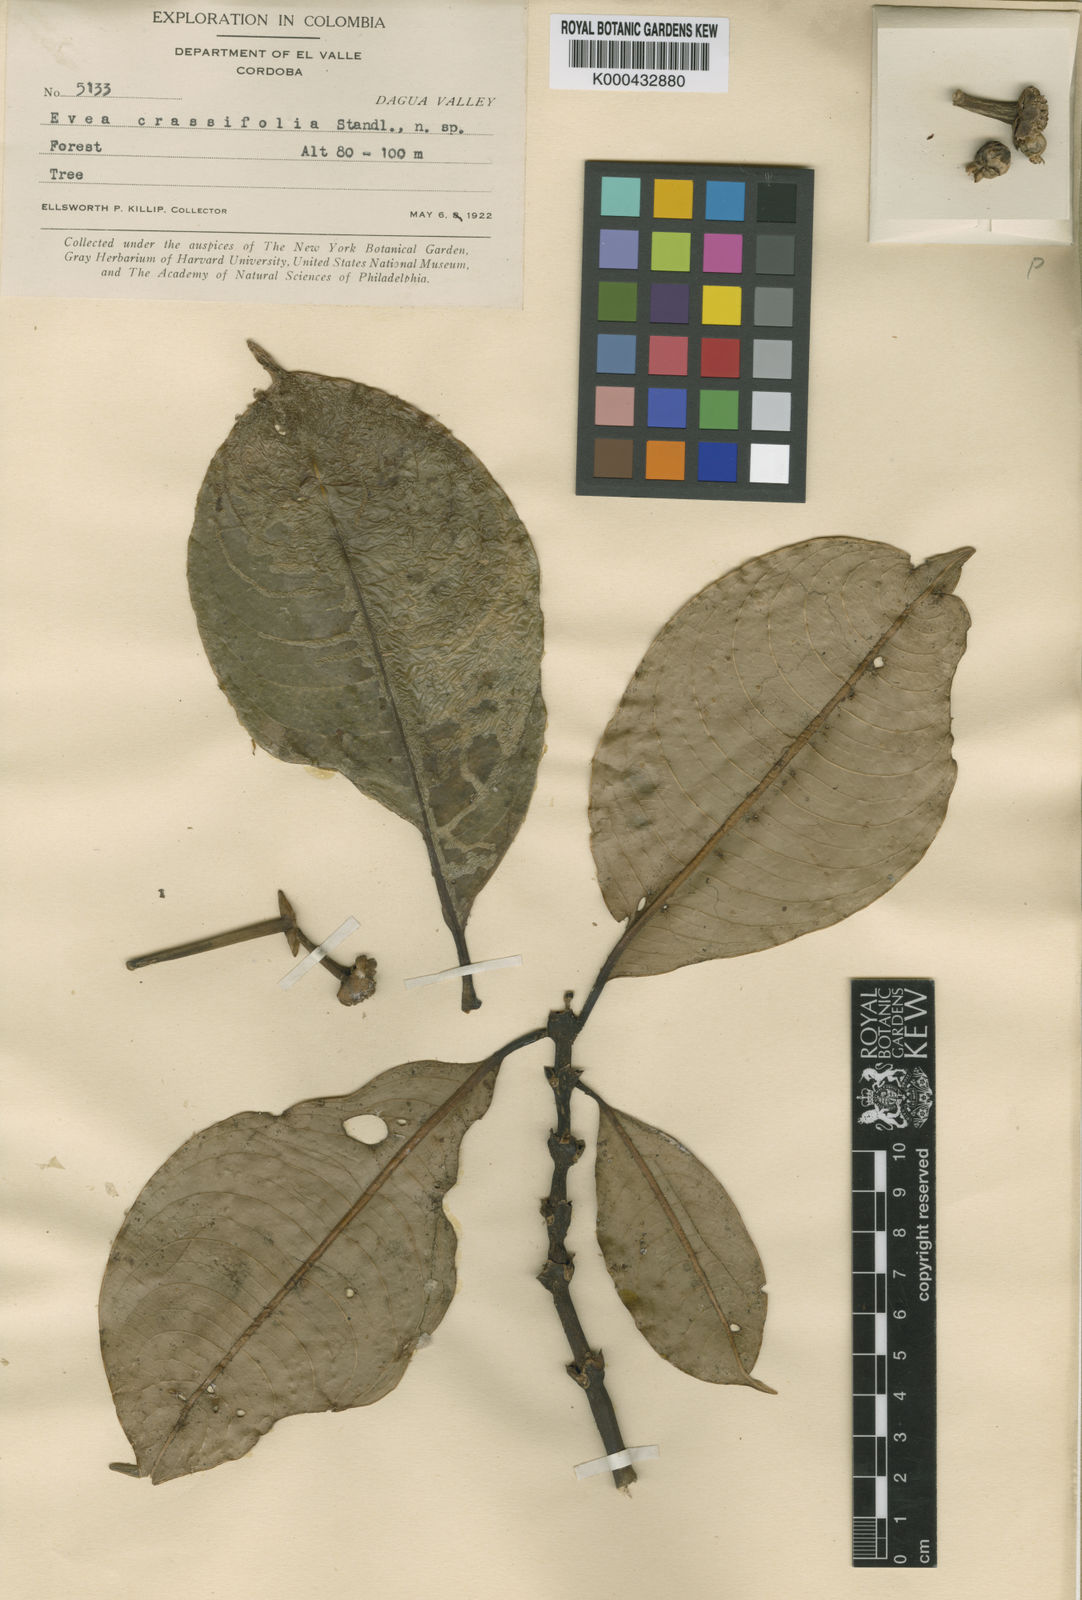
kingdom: Plantae
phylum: Tracheophyta
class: Magnoliopsida
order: Gentianales
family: Rubiaceae
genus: Psychotria
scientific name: Psychotria crassifolia
